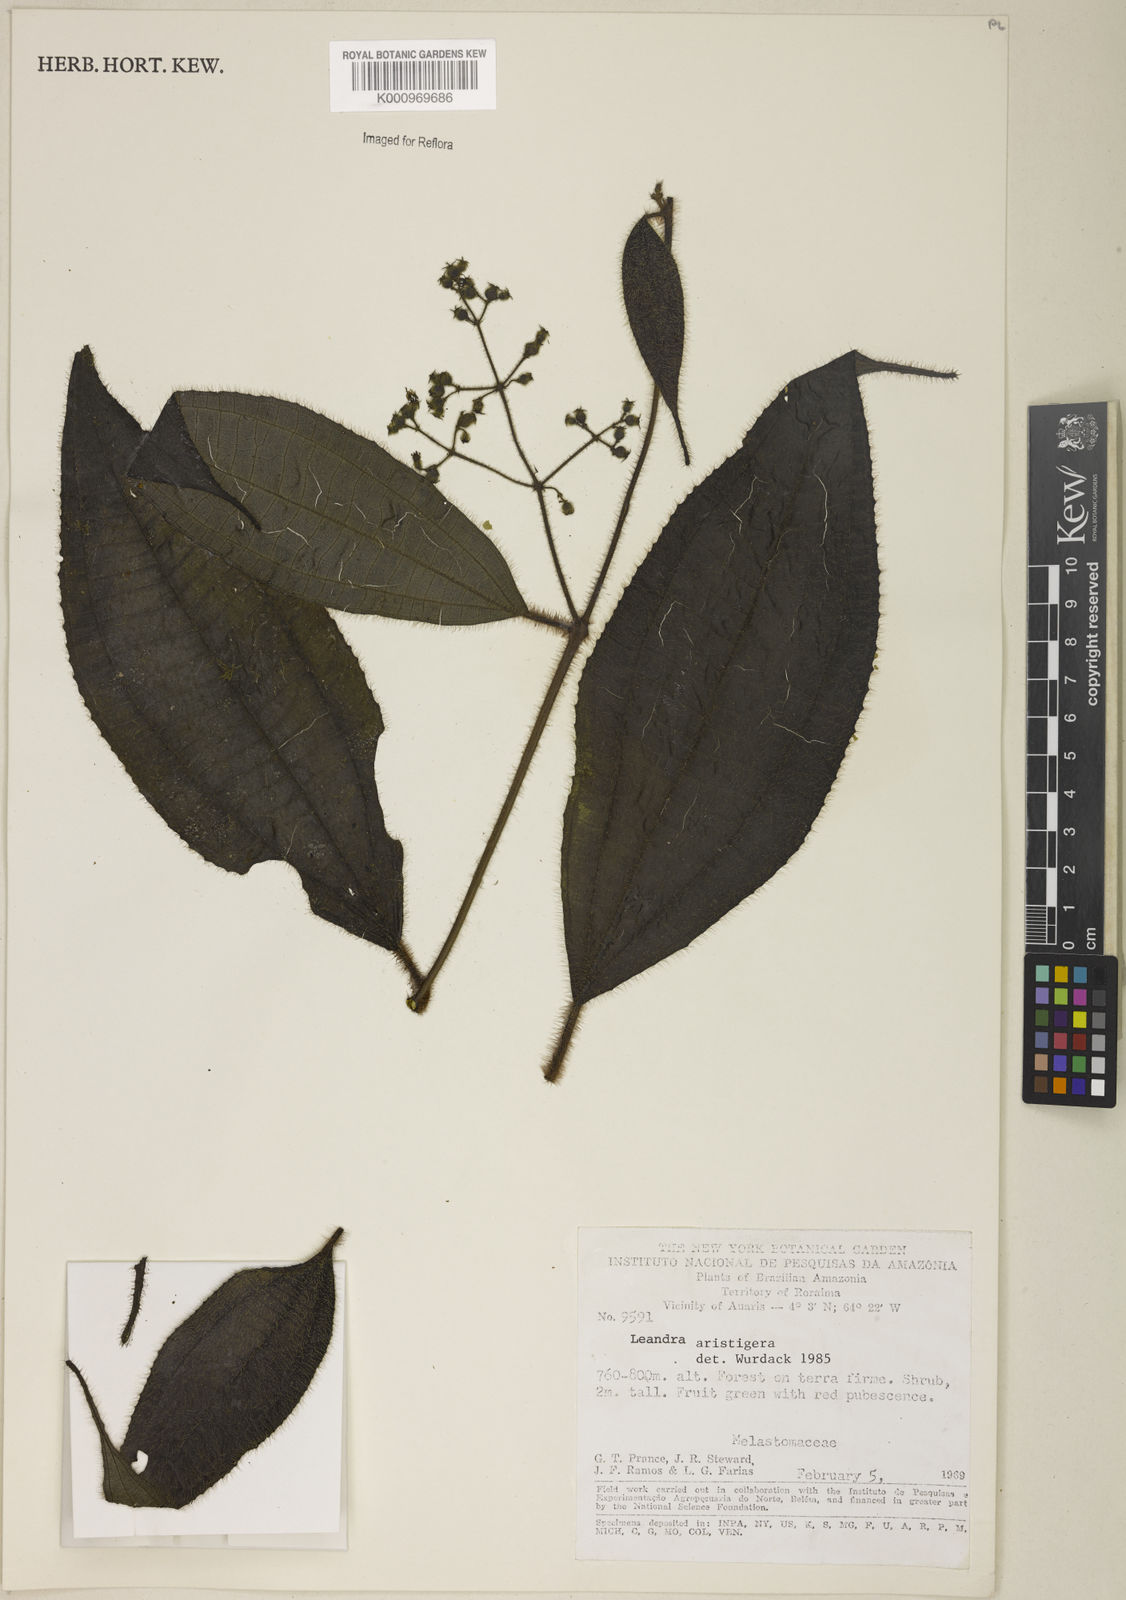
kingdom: Plantae
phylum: Tracheophyta
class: Magnoliopsida
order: Myrtales
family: Melastomataceae
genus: Miconia
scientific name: Miconia aristigera
